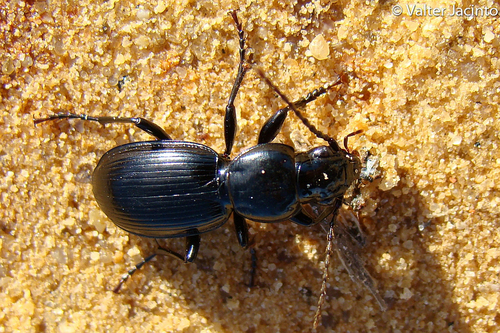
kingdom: Animalia
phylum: Arthropoda
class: Insecta
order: Coleoptera
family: Carabidae
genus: Pterostichus
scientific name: Pterostichus ebenus
